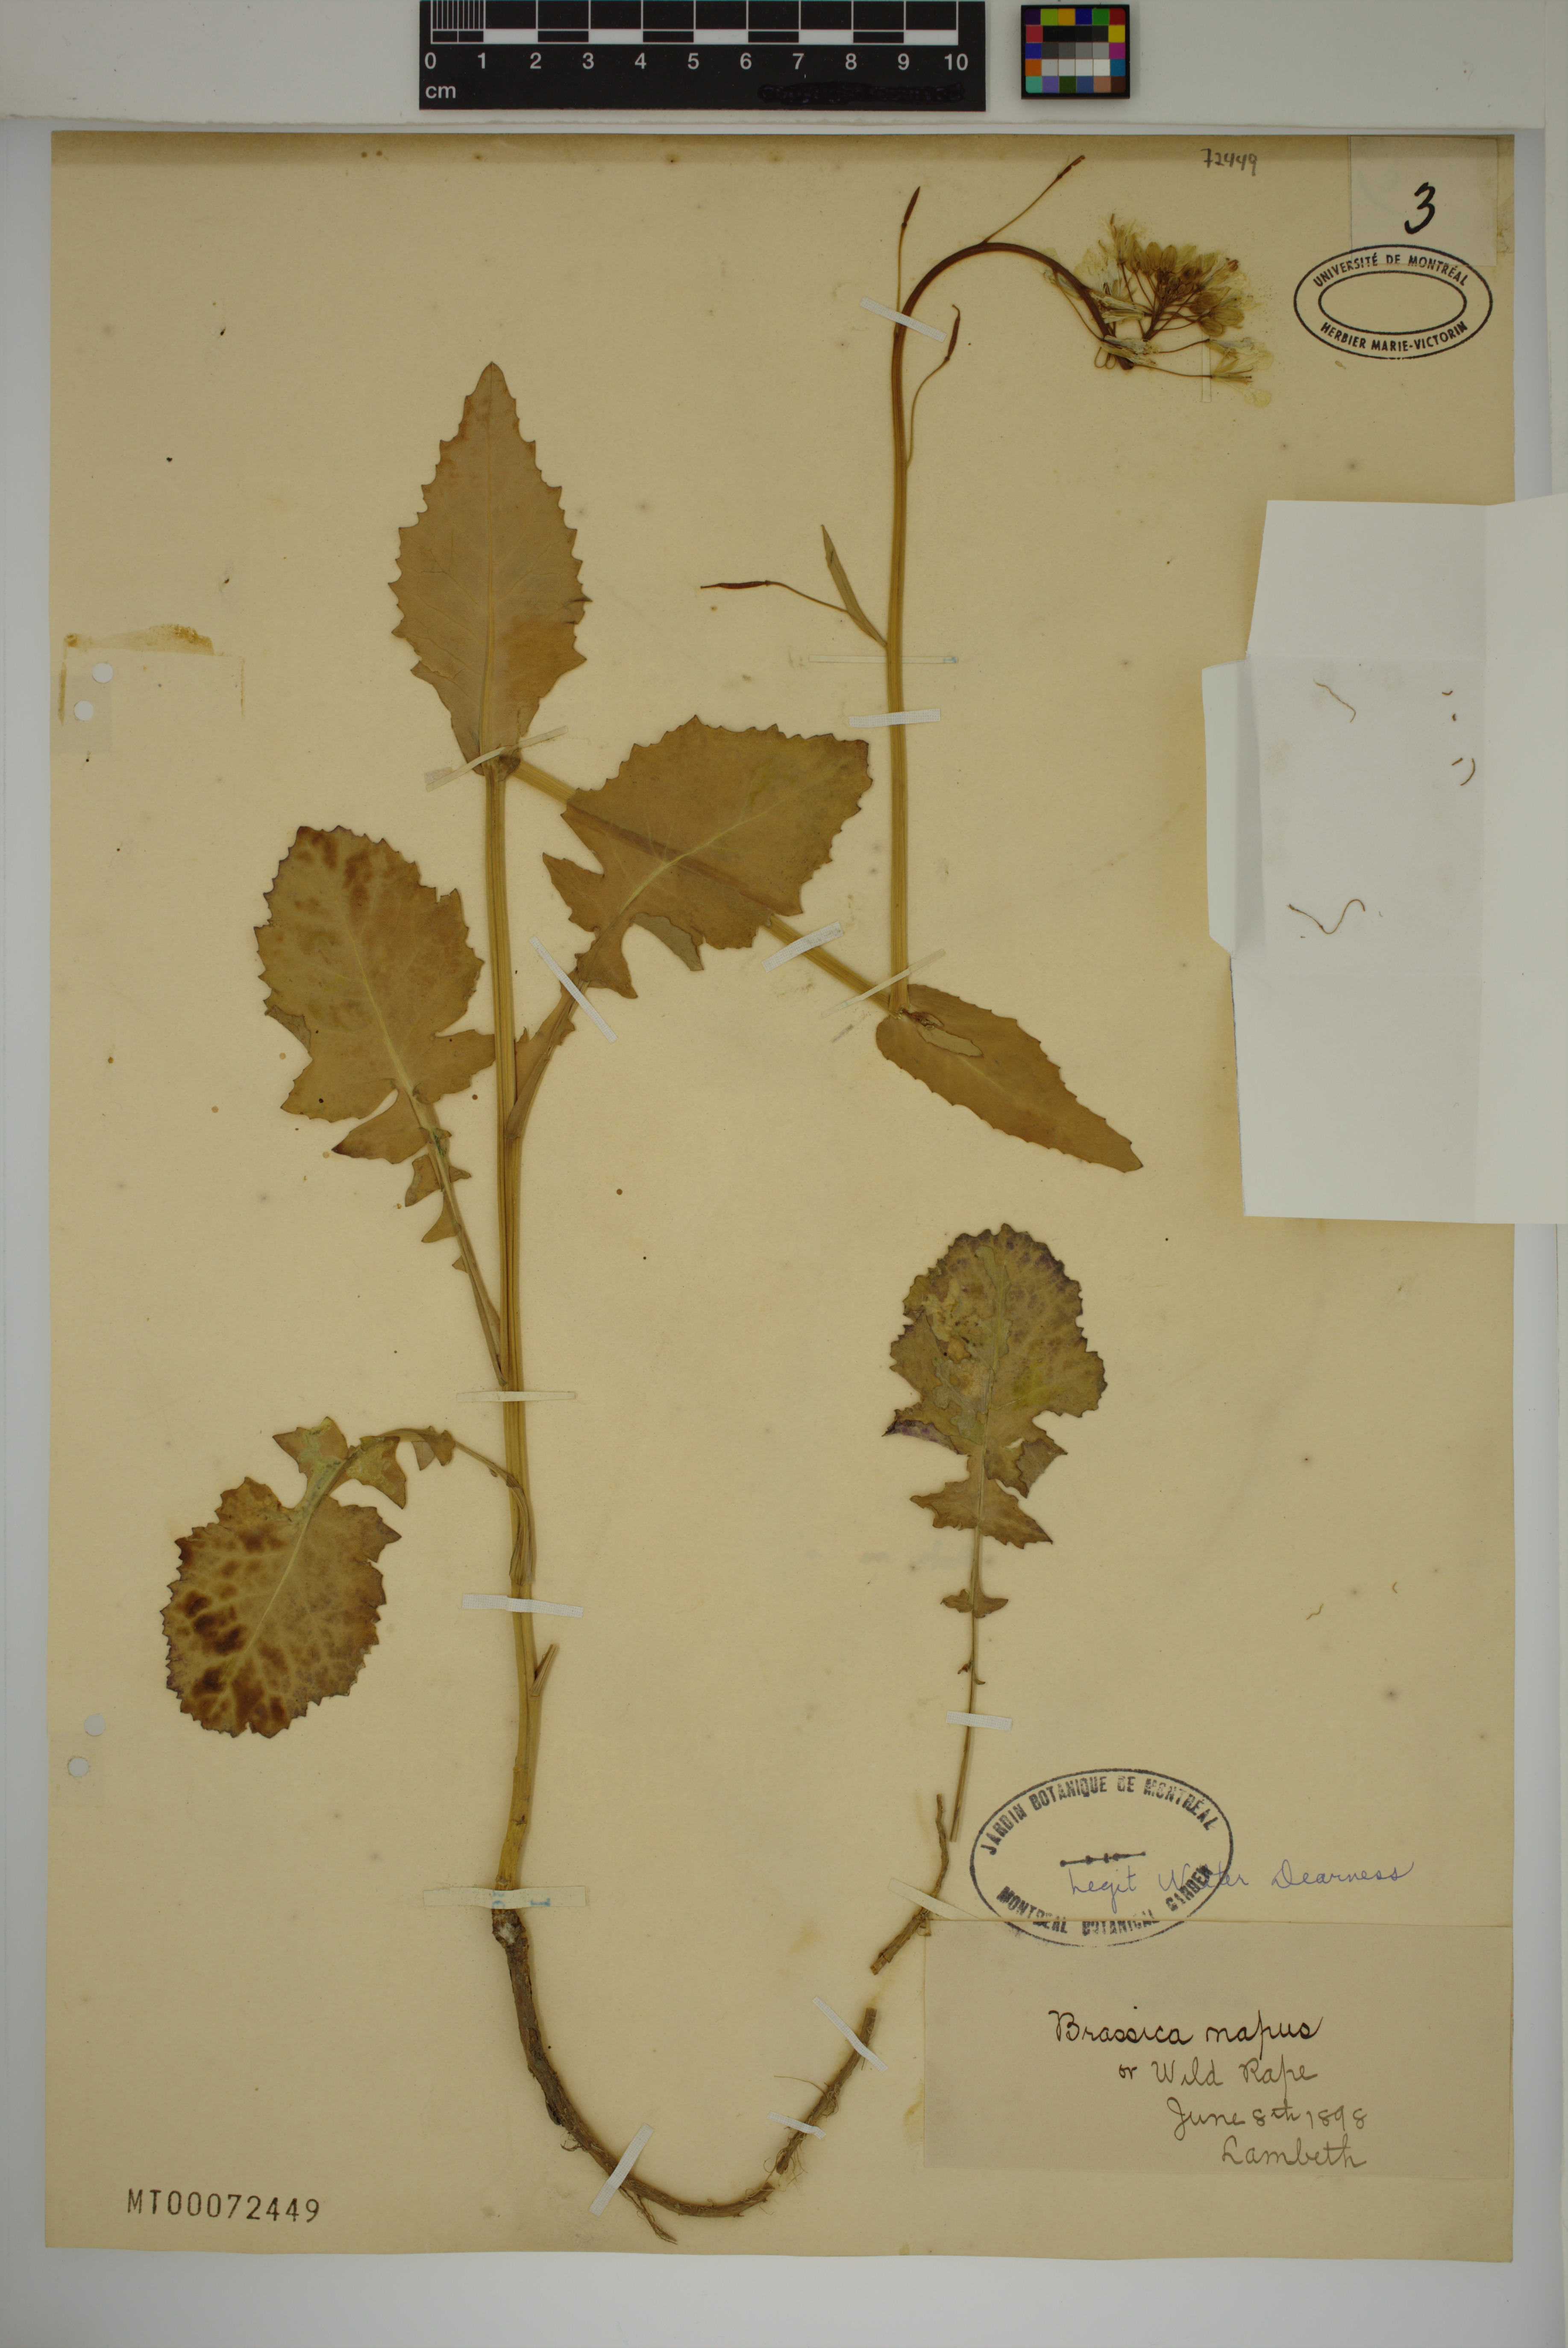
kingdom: Plantae
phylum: Tracheophyta
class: Magnoliopsida
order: Brassicales
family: Brassicaceae
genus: Brassica
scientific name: Brassica napus
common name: Rape
